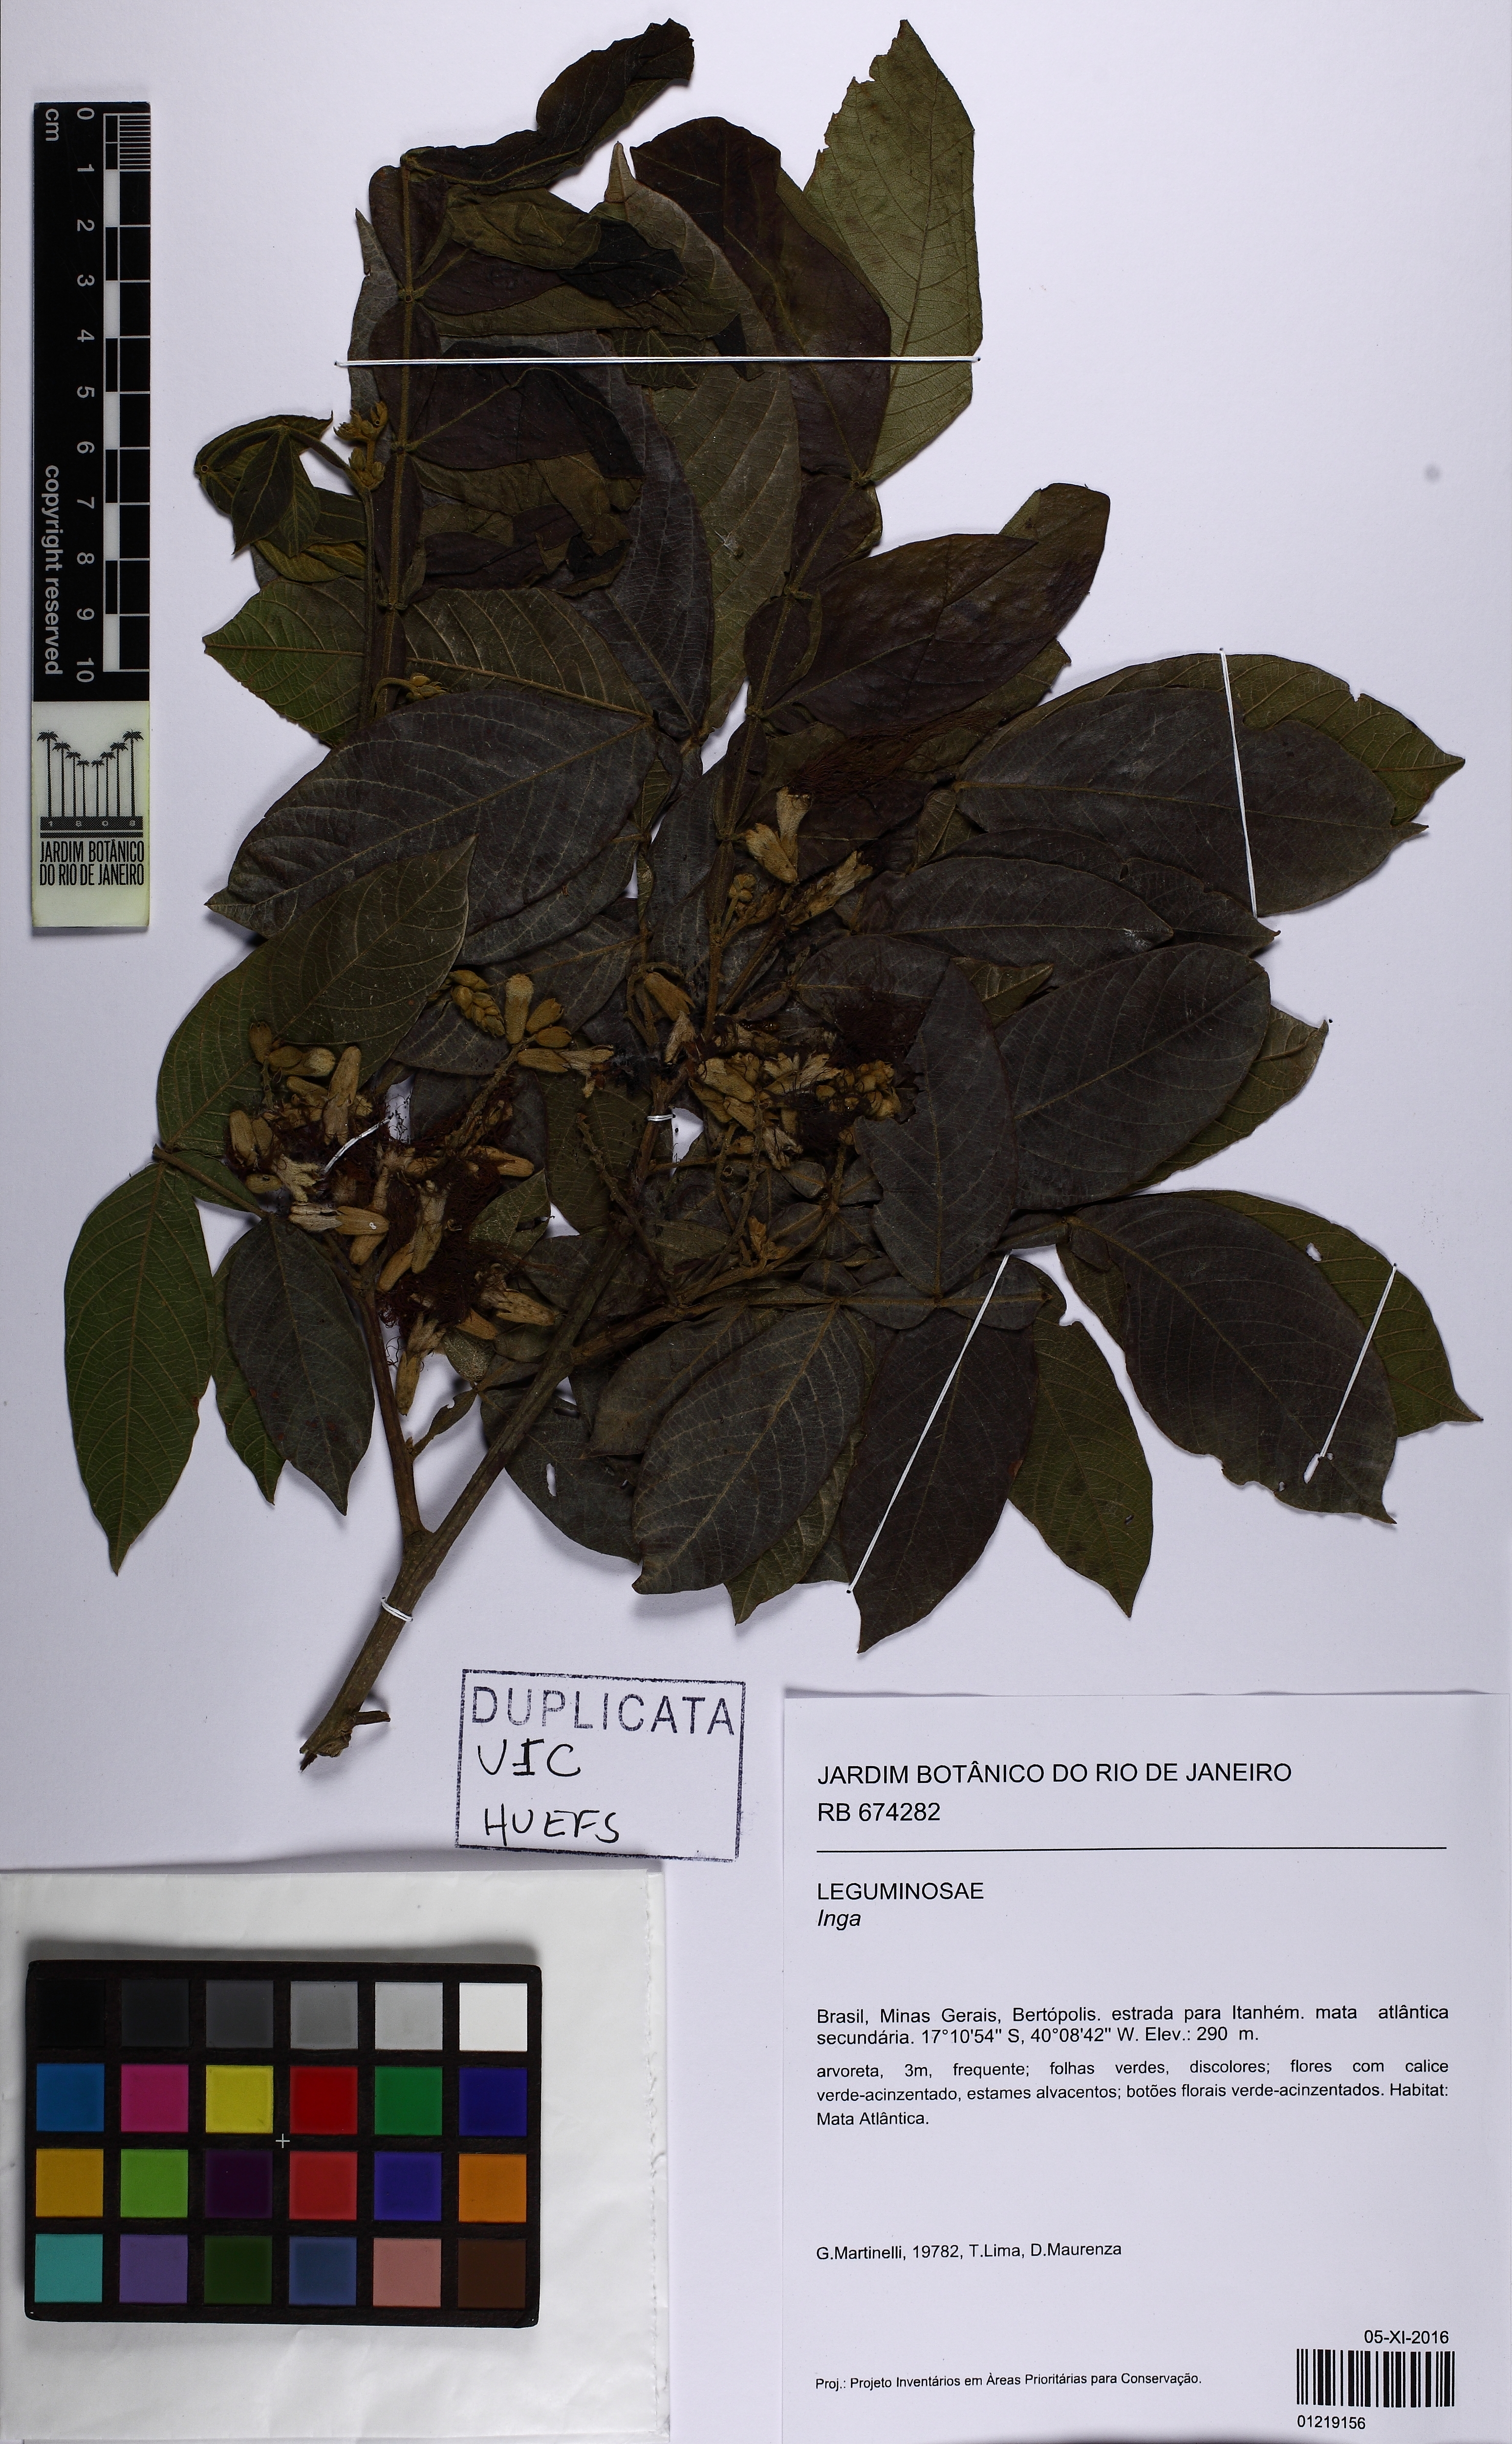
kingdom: Plantae
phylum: Tracheophyta
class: Magnoliopsida
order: Fabales
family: Fabaceae
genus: Inga
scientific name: Inga
